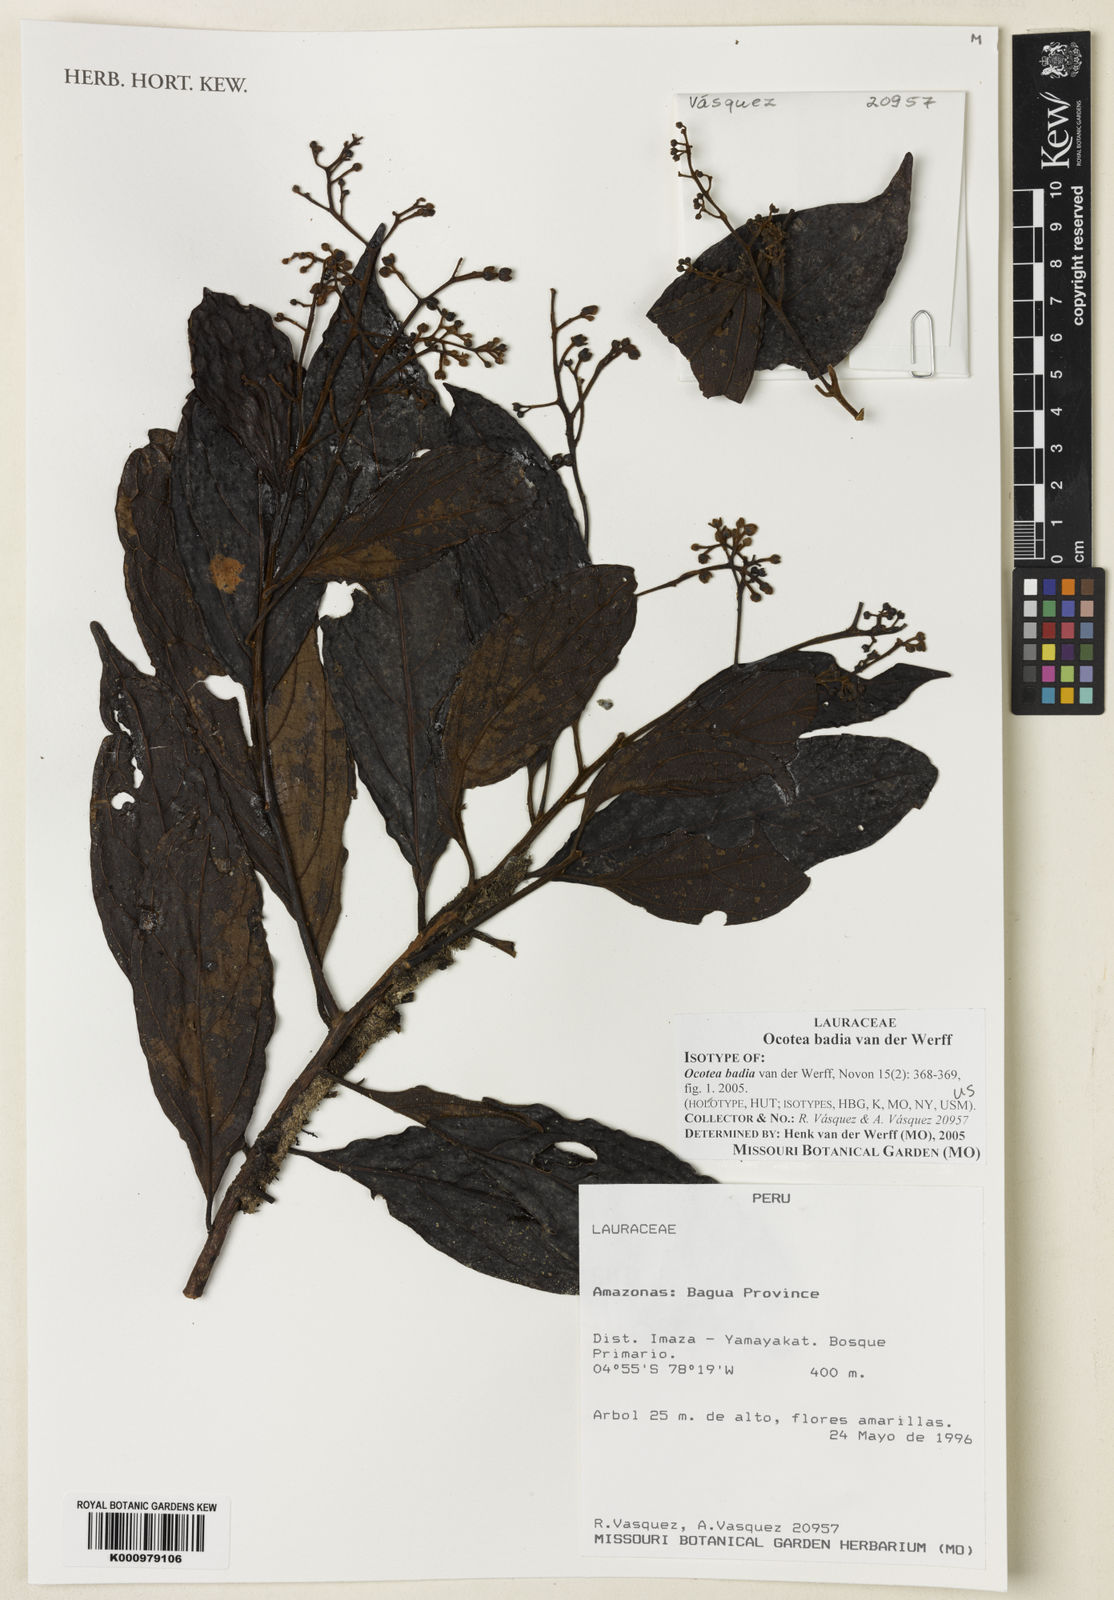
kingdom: Plantae
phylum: Tracheophyta
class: Magnoliopsida
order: Laurales
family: Lauraceae
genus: Ocotea
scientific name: Ocotea badia
